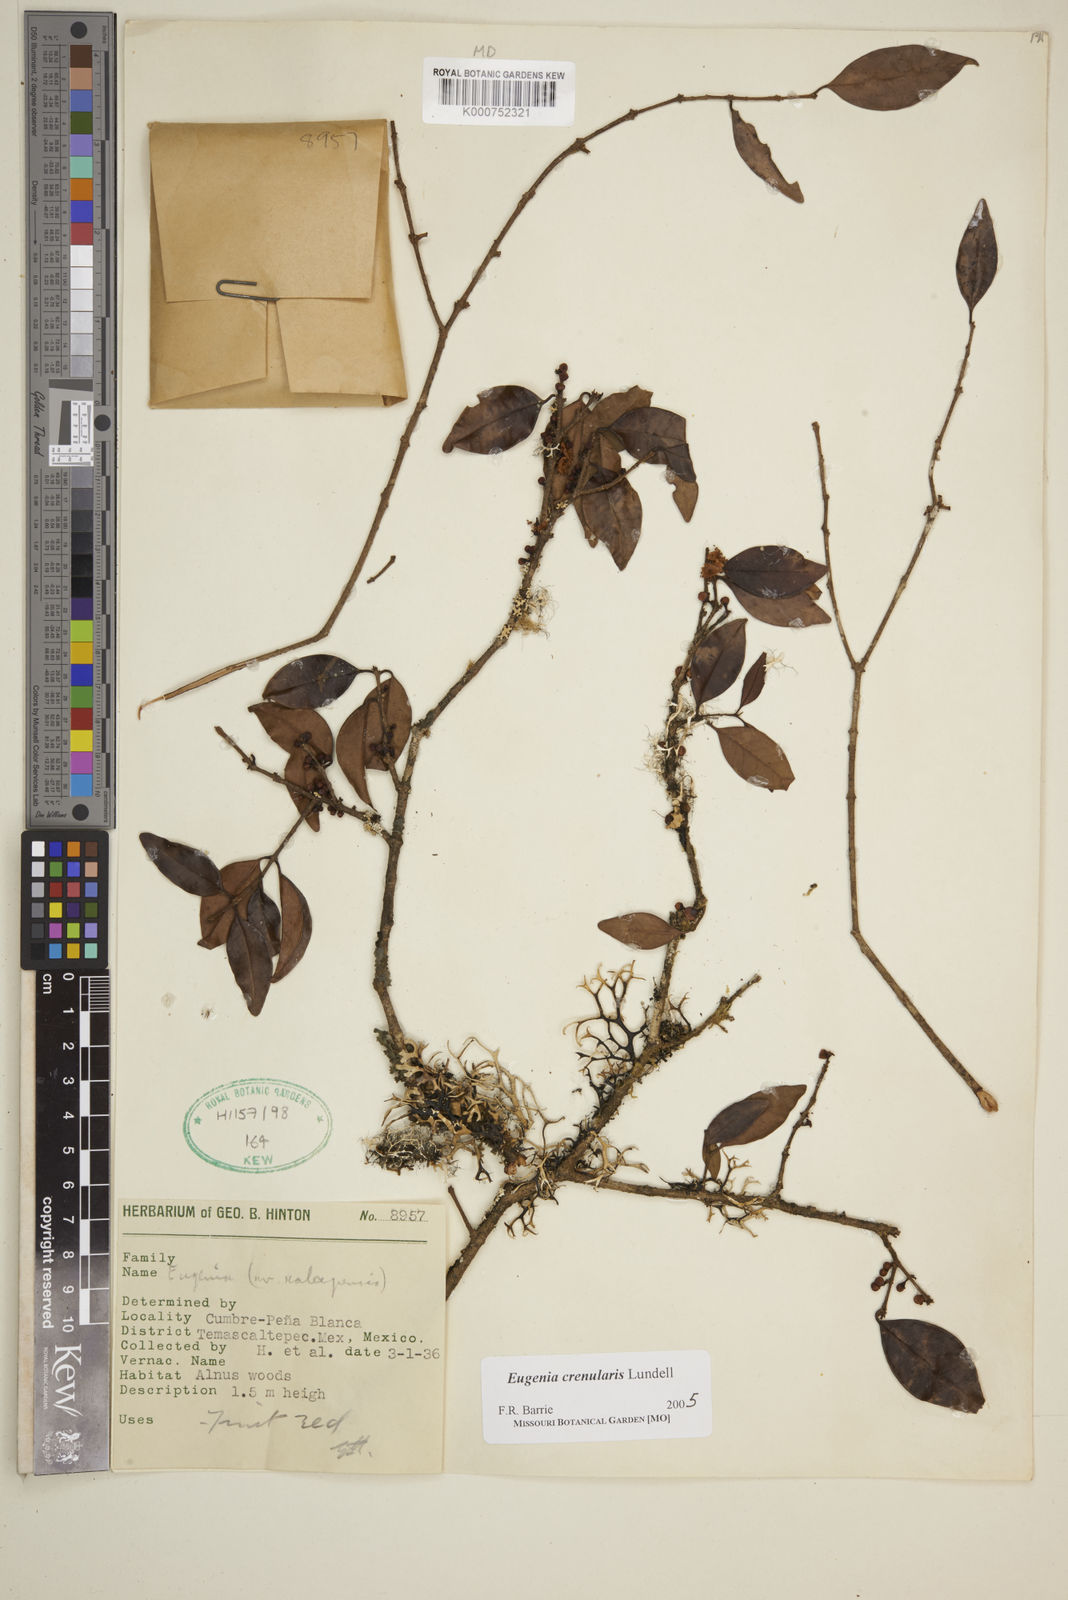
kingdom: Plantae
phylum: Tracheophyta
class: Magnoliopsida
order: Myrtales
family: Myrtaceae
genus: Eugenia
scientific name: Eugenia crenularis
